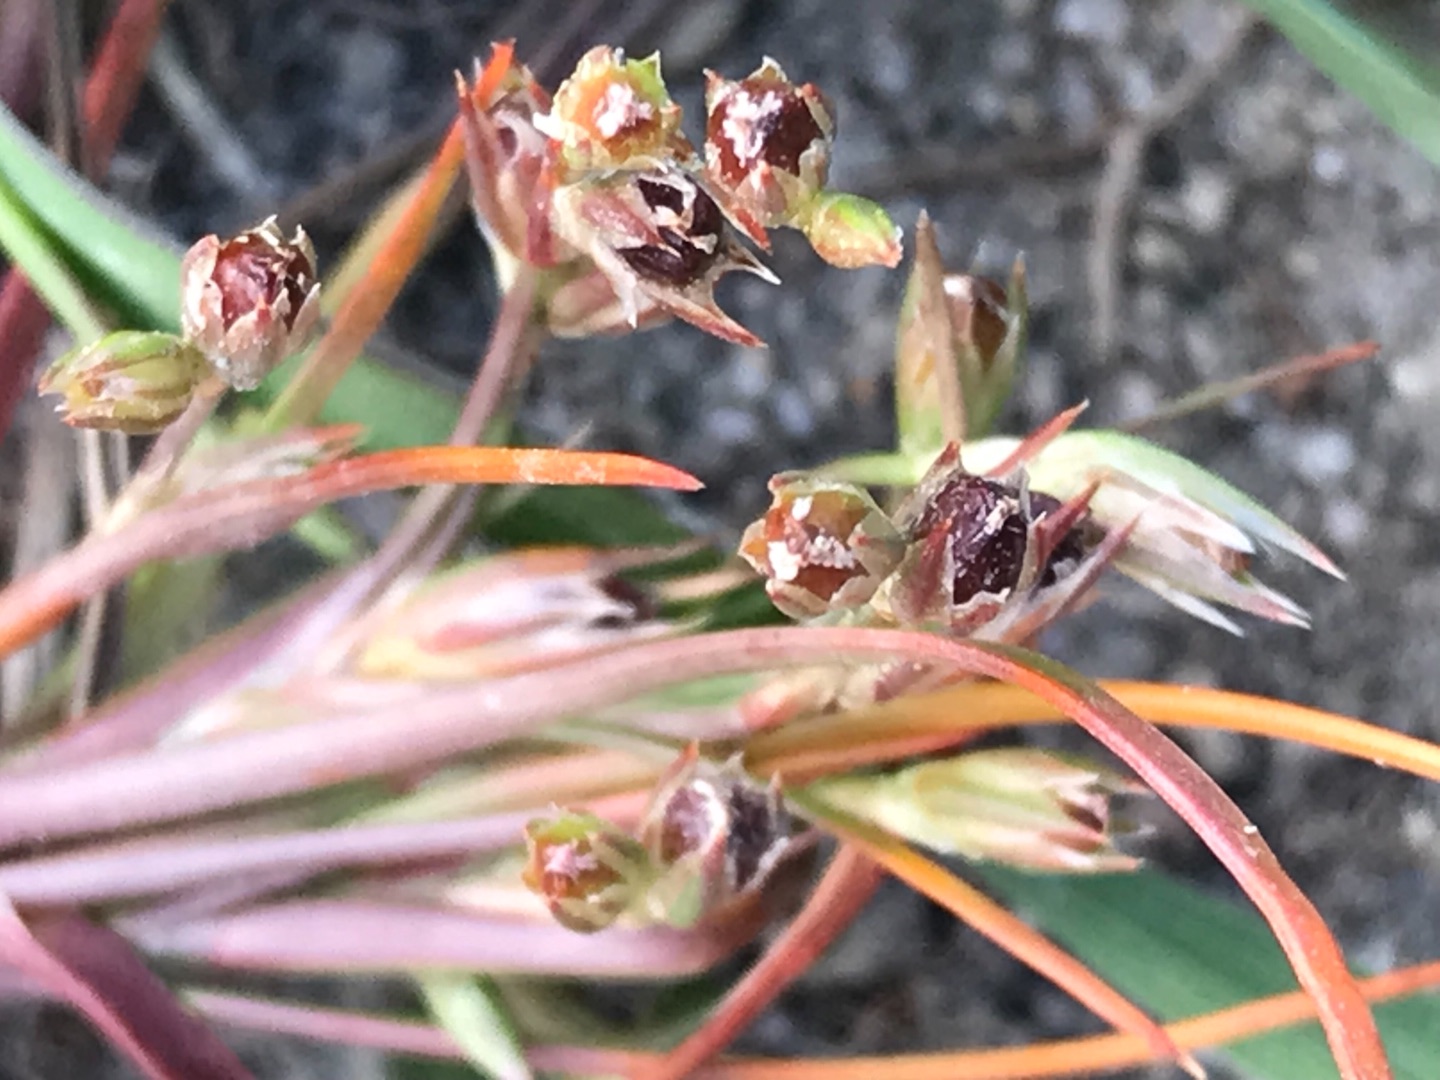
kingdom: Plantae
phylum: Tracheophyta
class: Liliopsida
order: Poales
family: Juncaceae
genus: Juncus
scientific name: Juncus ranarius
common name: Klæg-siv
